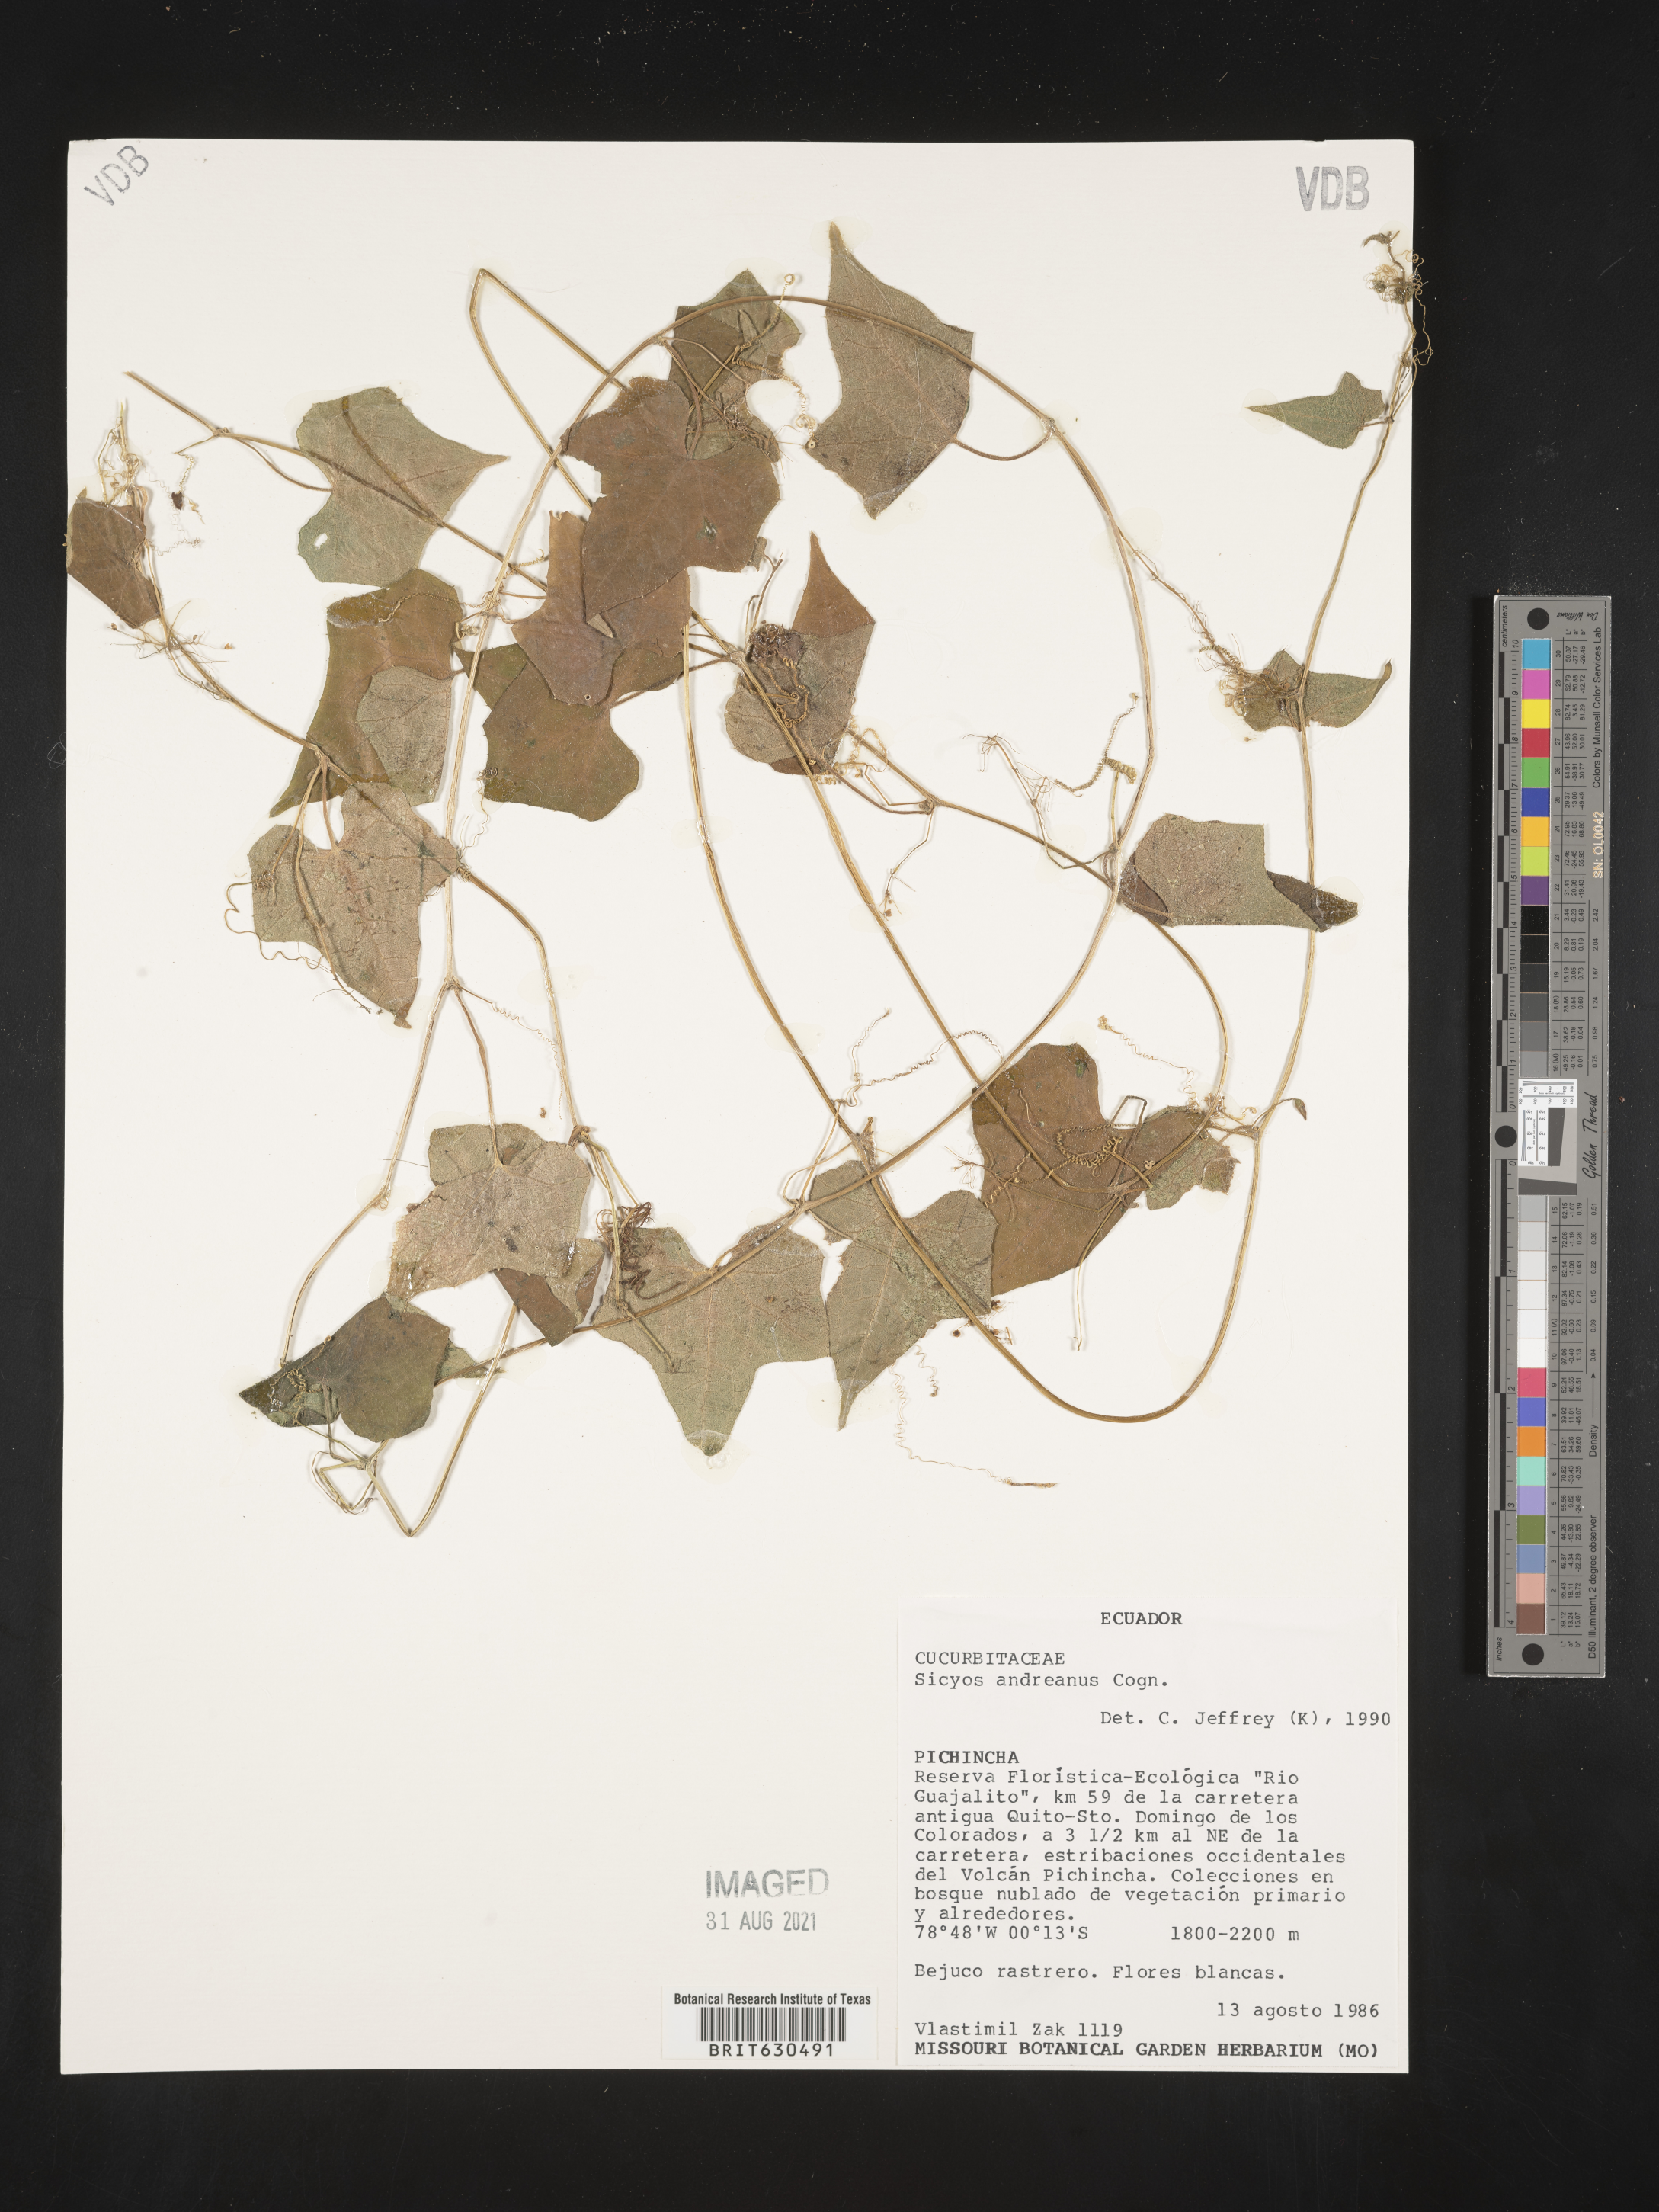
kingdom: Plantae
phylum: Tracheophyta
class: Magnoliopsida
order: Cucurbitales
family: Cucurbitaceae
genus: Sicyos
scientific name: Sicyos andreanus
